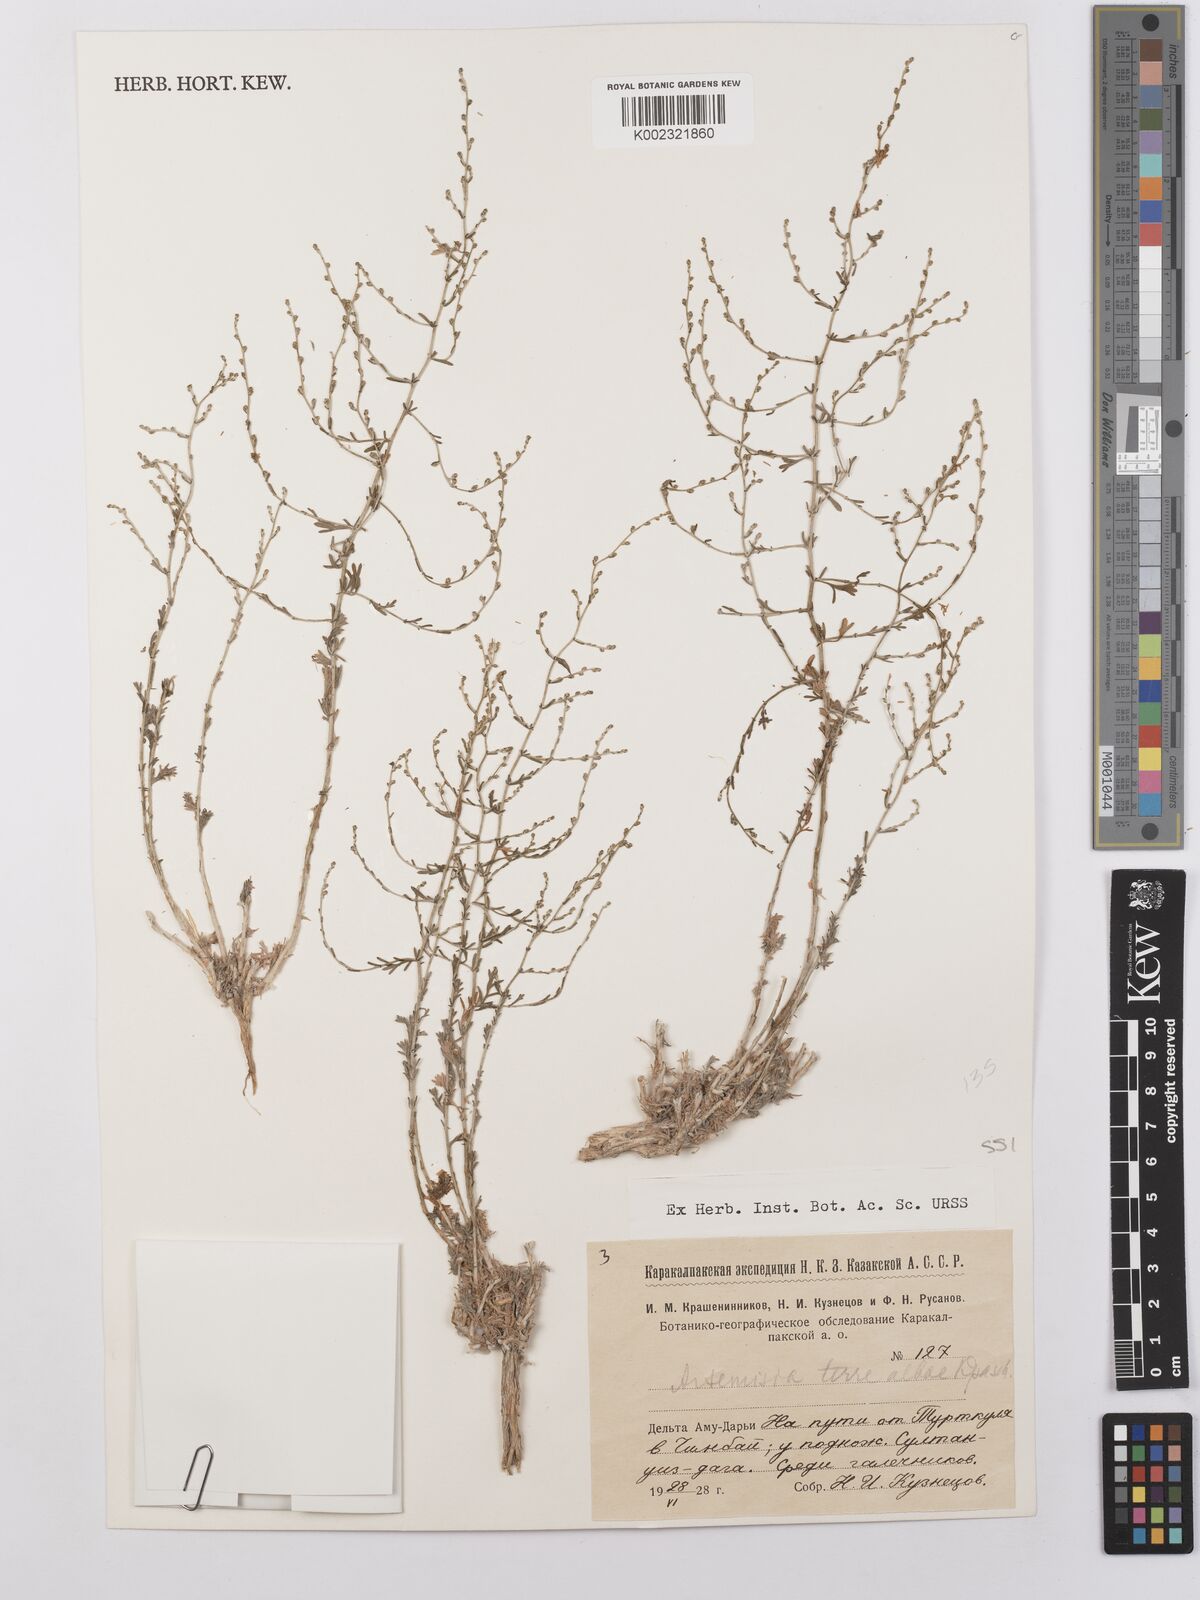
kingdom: Plantae
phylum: Tracheophyta
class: Magnoliopsida
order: Asterales
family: Asteraceae
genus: Artemisia
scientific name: Artemisia terrae-albae
